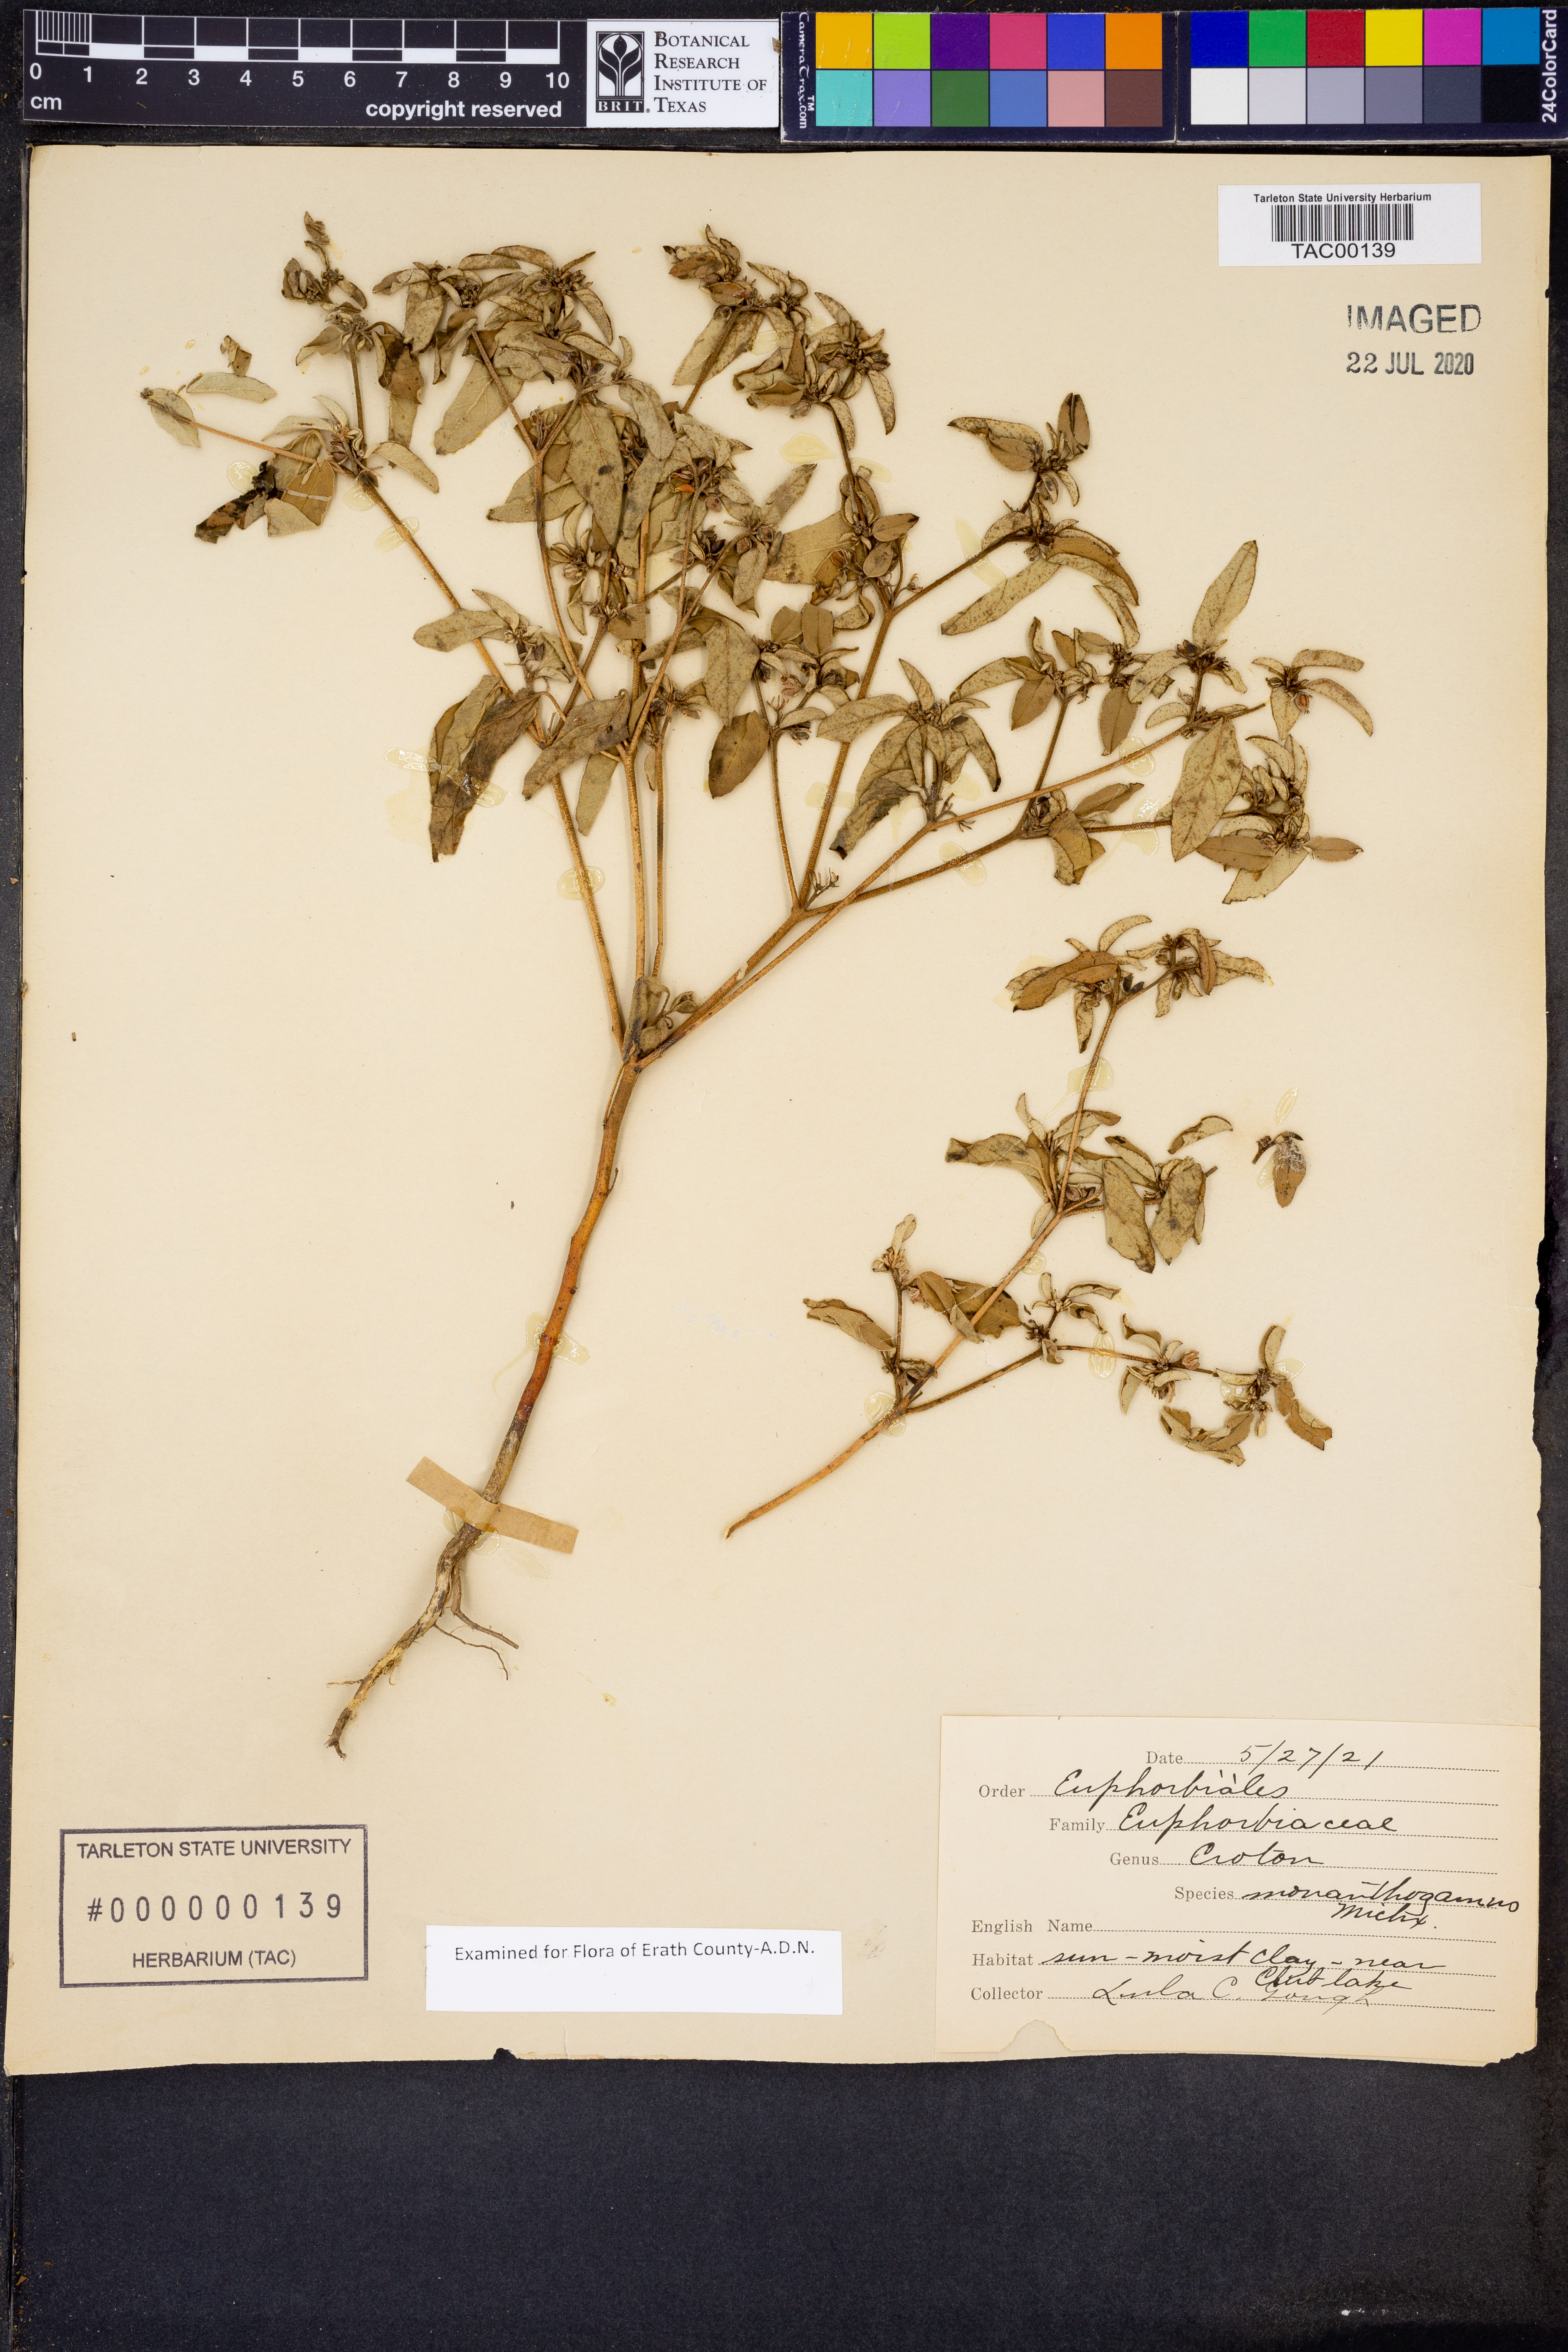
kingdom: Plantae
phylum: Tracheophyta
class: Magnoliopsida
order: Malpighiales
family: Euphorbiaceae
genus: Croton
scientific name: Croton monanthogynus
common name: One-seed croton
